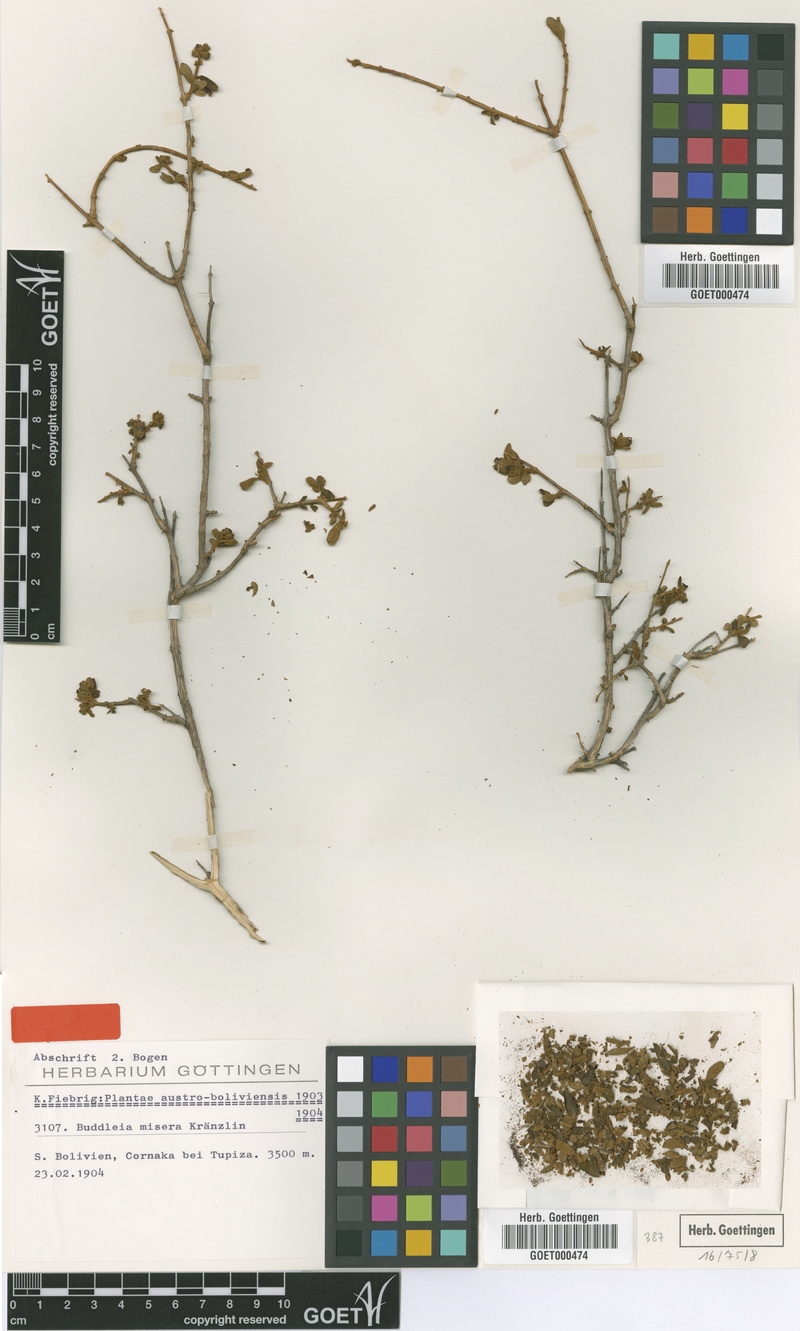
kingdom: Plantae
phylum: Tracheophyta
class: Magnoliopsida
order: Lamiales
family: Scrophulariaceae
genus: Buddleja
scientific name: Buddleja hieronymi
